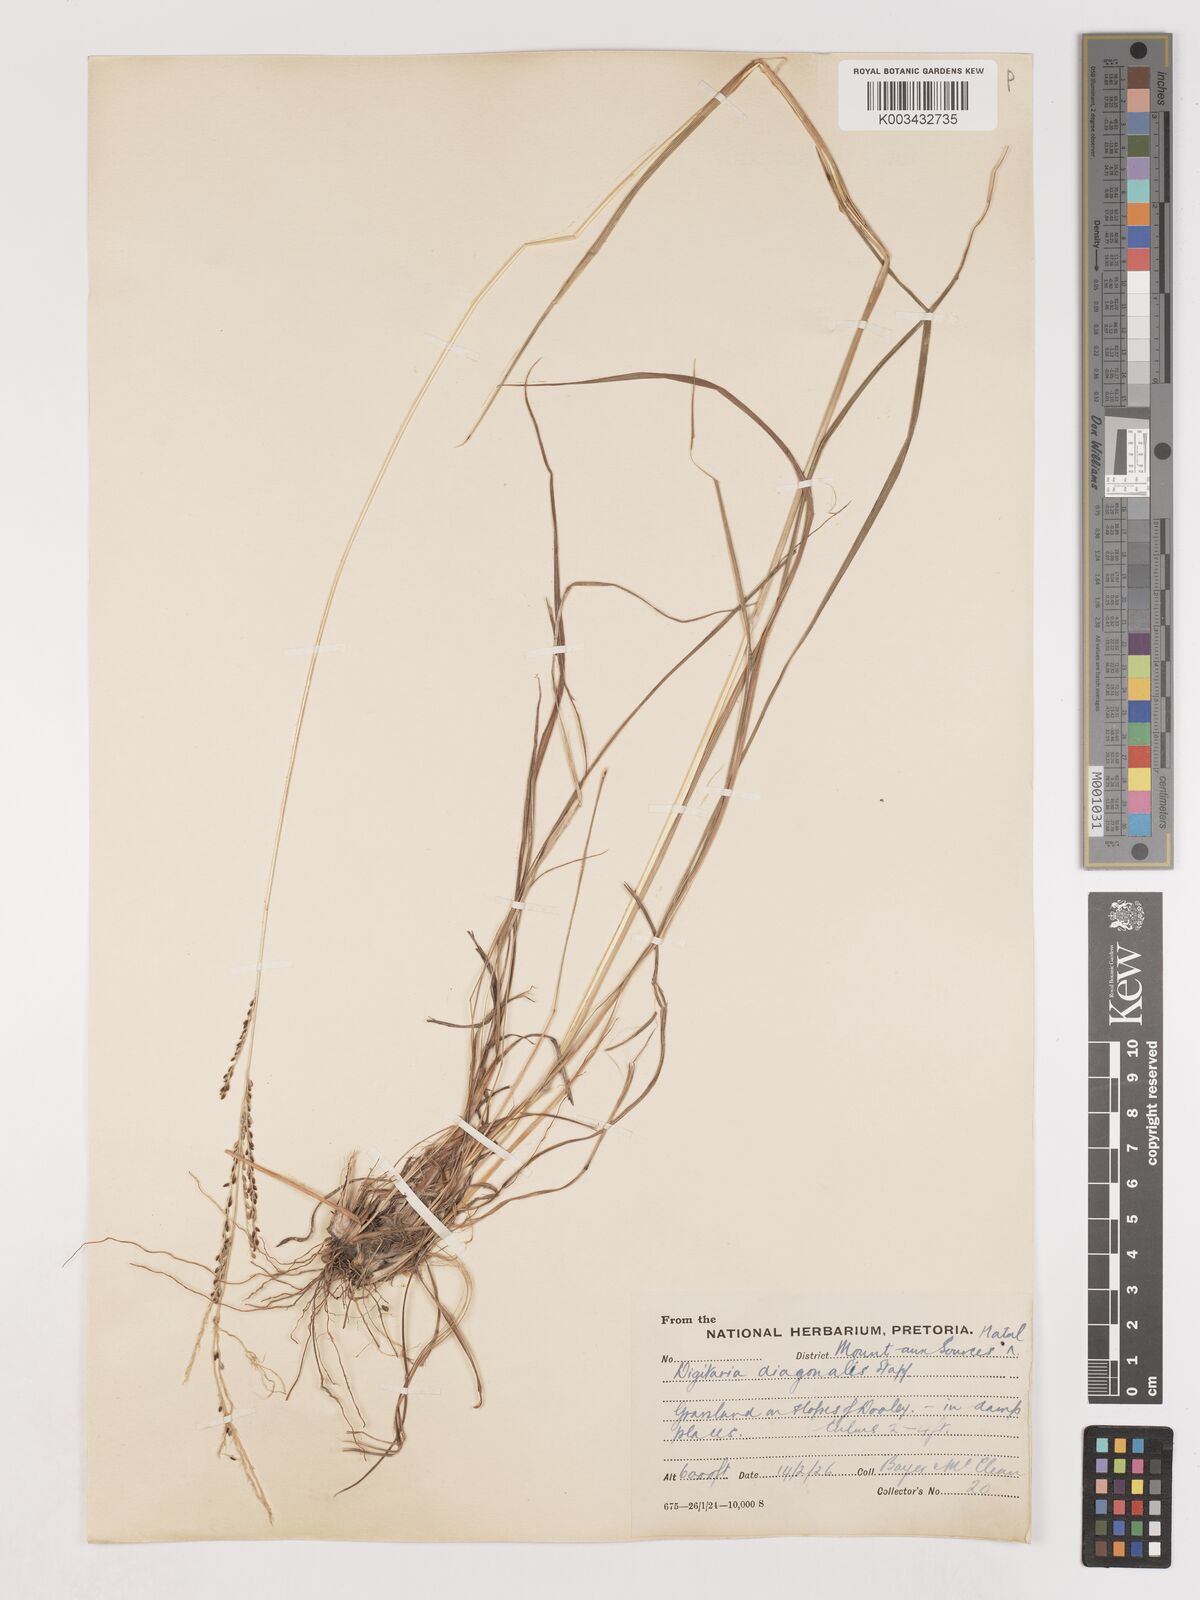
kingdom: Plantae
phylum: Tracheophyta
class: Liliopsida
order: Poales
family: Poaceae
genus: Digitaria
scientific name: Digitaria diagonalis
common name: Brown-seed finger grass
